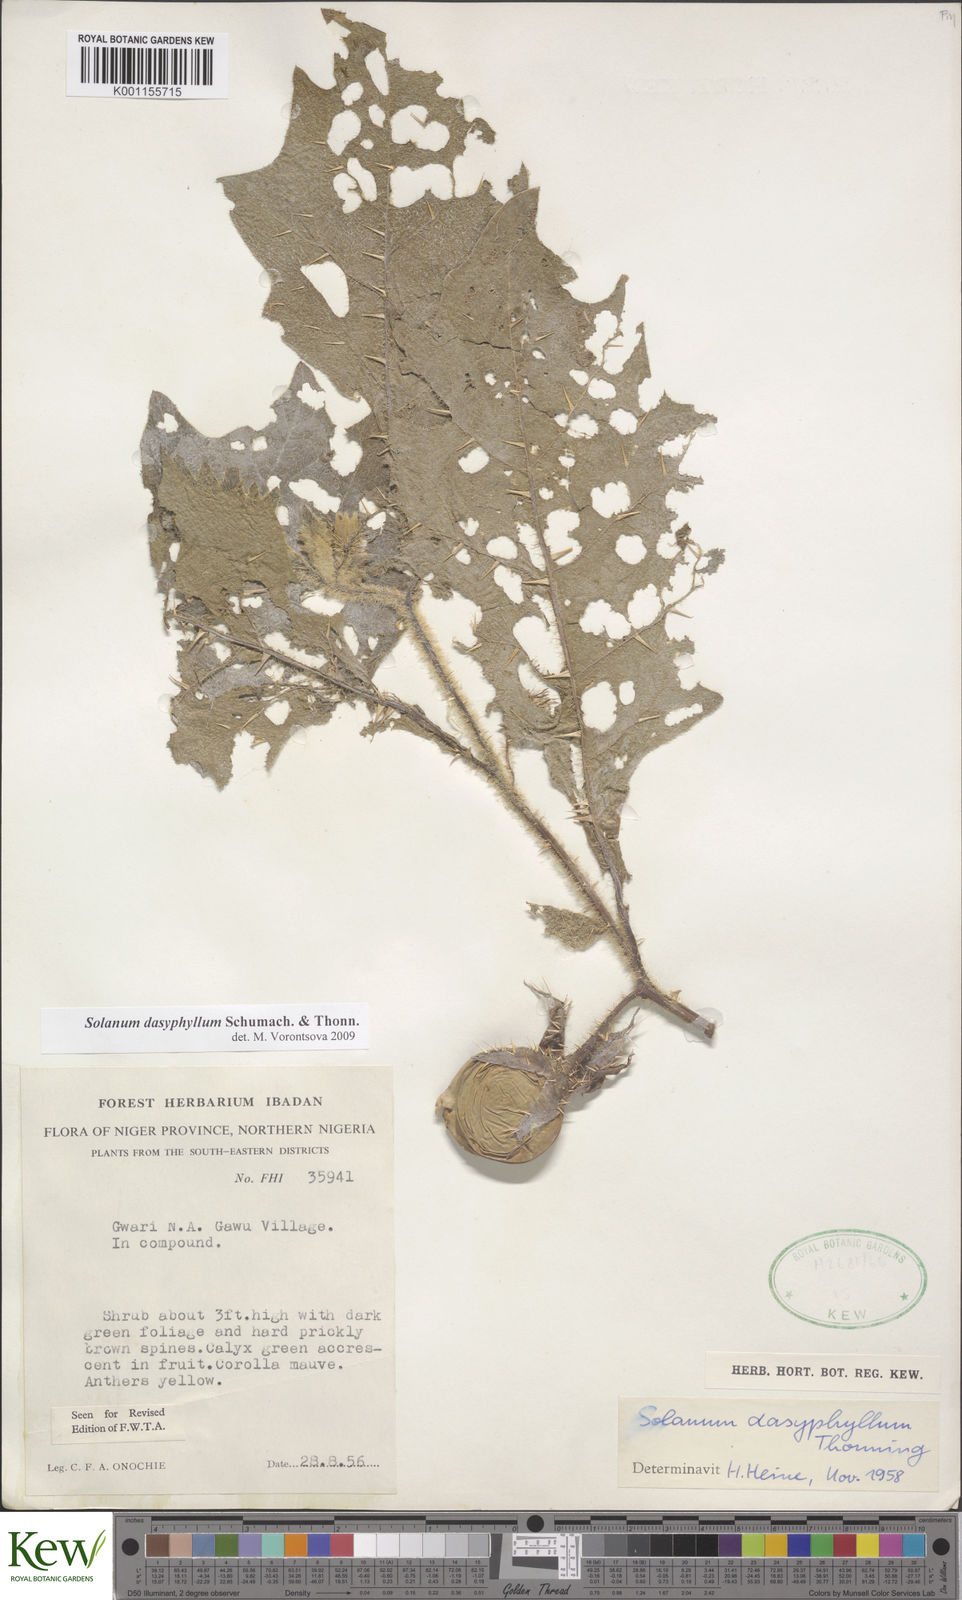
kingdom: Plantae
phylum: Tracheophyta
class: Magnoliopsida
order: Solanales
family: Solanaceae
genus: Solanum
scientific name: Solanum dasyphyllum
